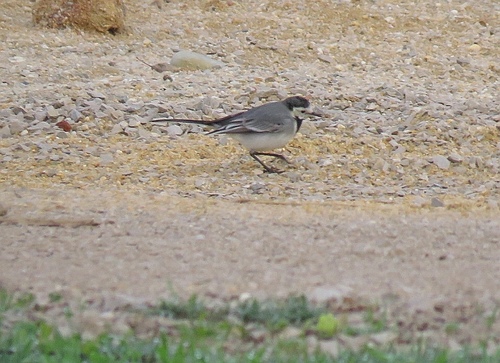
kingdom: Animalia
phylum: Chordata
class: Aves
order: Passeriformes
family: Motacillidae
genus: Motacilla
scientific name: Motacilla alba
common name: White wagtail
